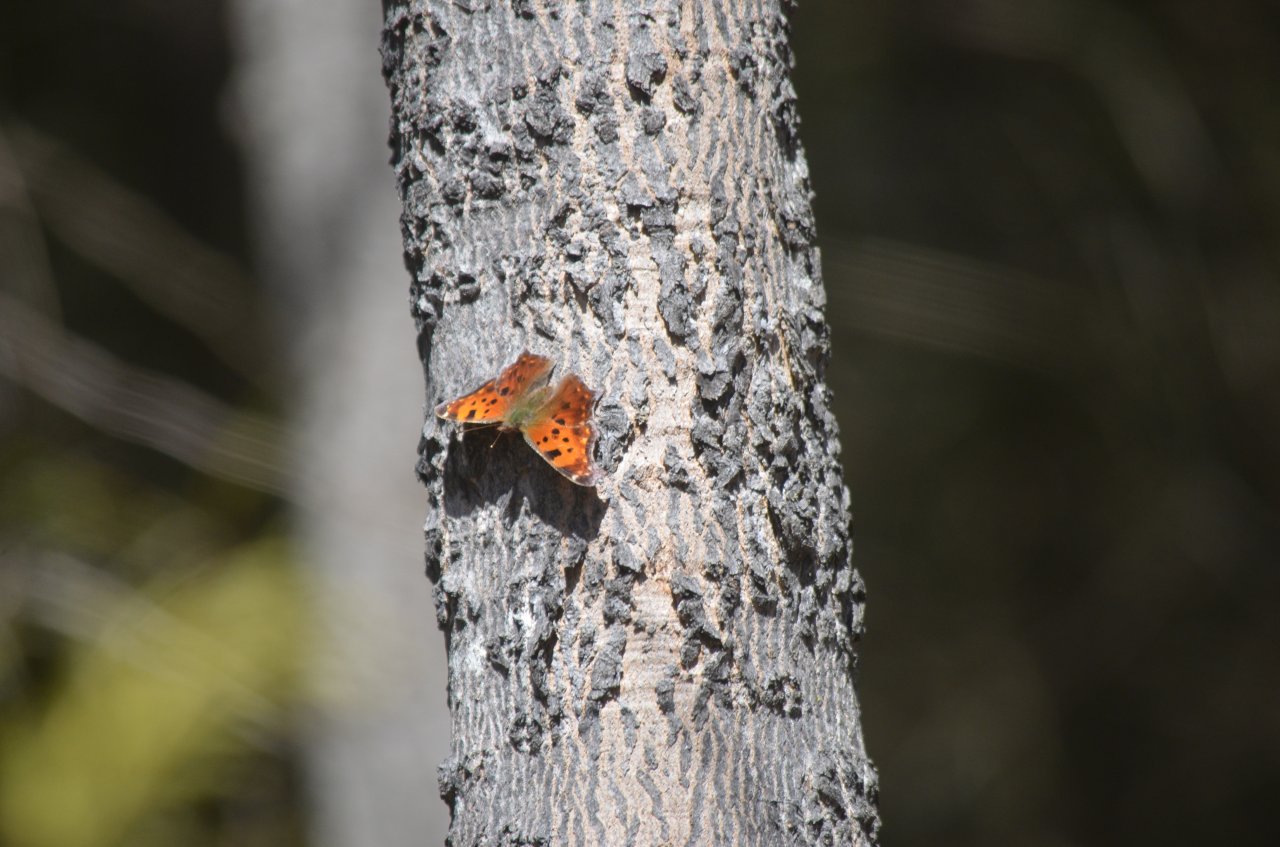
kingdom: Animalia
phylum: Arthropoda
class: Insecta
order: Lepidoptera
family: Nymphalidae
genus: Polygonia
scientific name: Polygonia comma
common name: Eastern Comma
